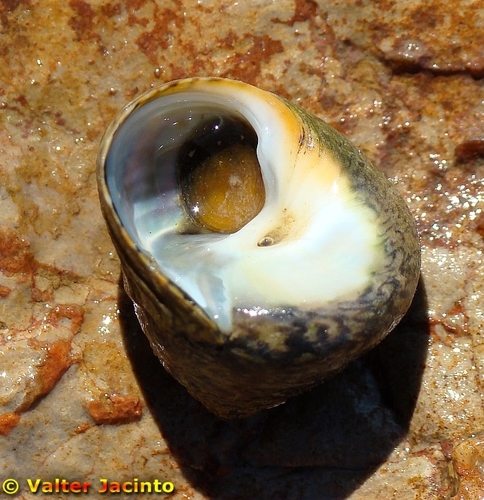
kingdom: Animalia
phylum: Mollusca
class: Gastropoda
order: Trochida
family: Trochidae
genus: Phorcus
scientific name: Phorcus lineatus
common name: Toothed top shell
